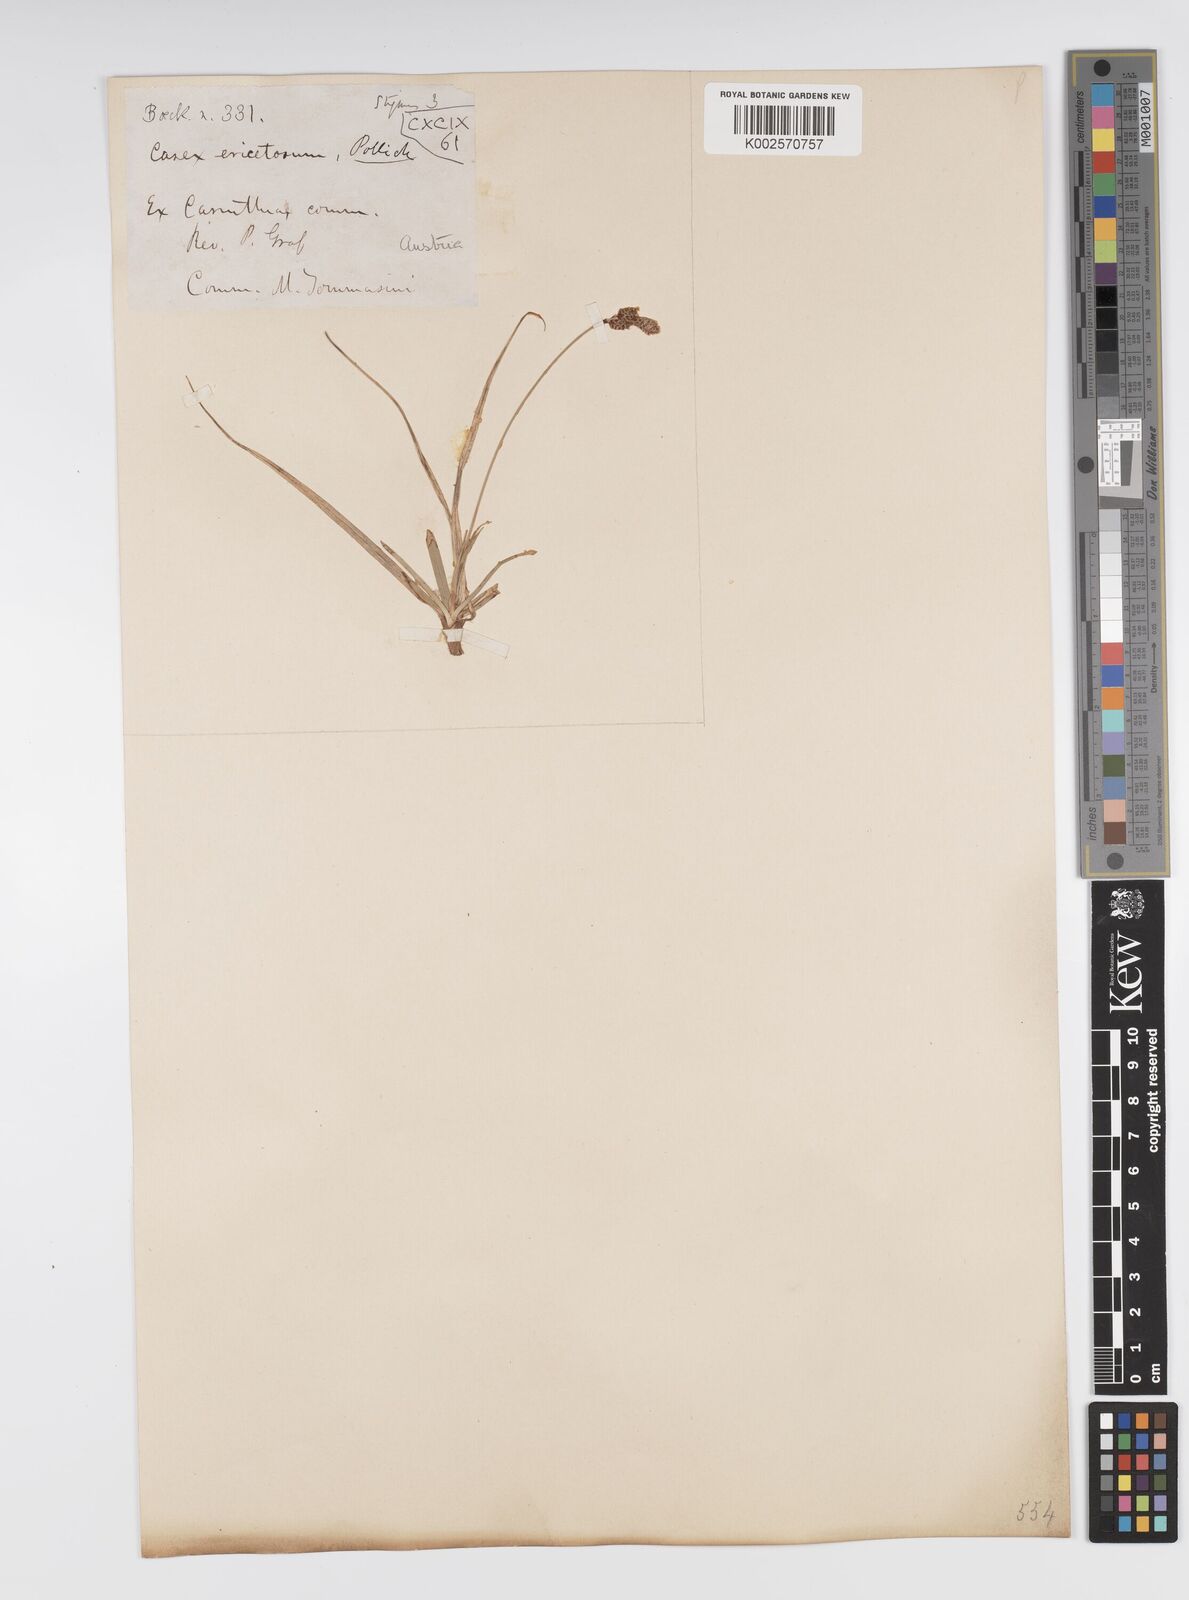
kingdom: Plantae
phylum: Tracheophyta
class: Liliopsida
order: Poales
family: Cyperaceae
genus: Carex
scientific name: Carex ericetorum
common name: Rare spring-sedge
